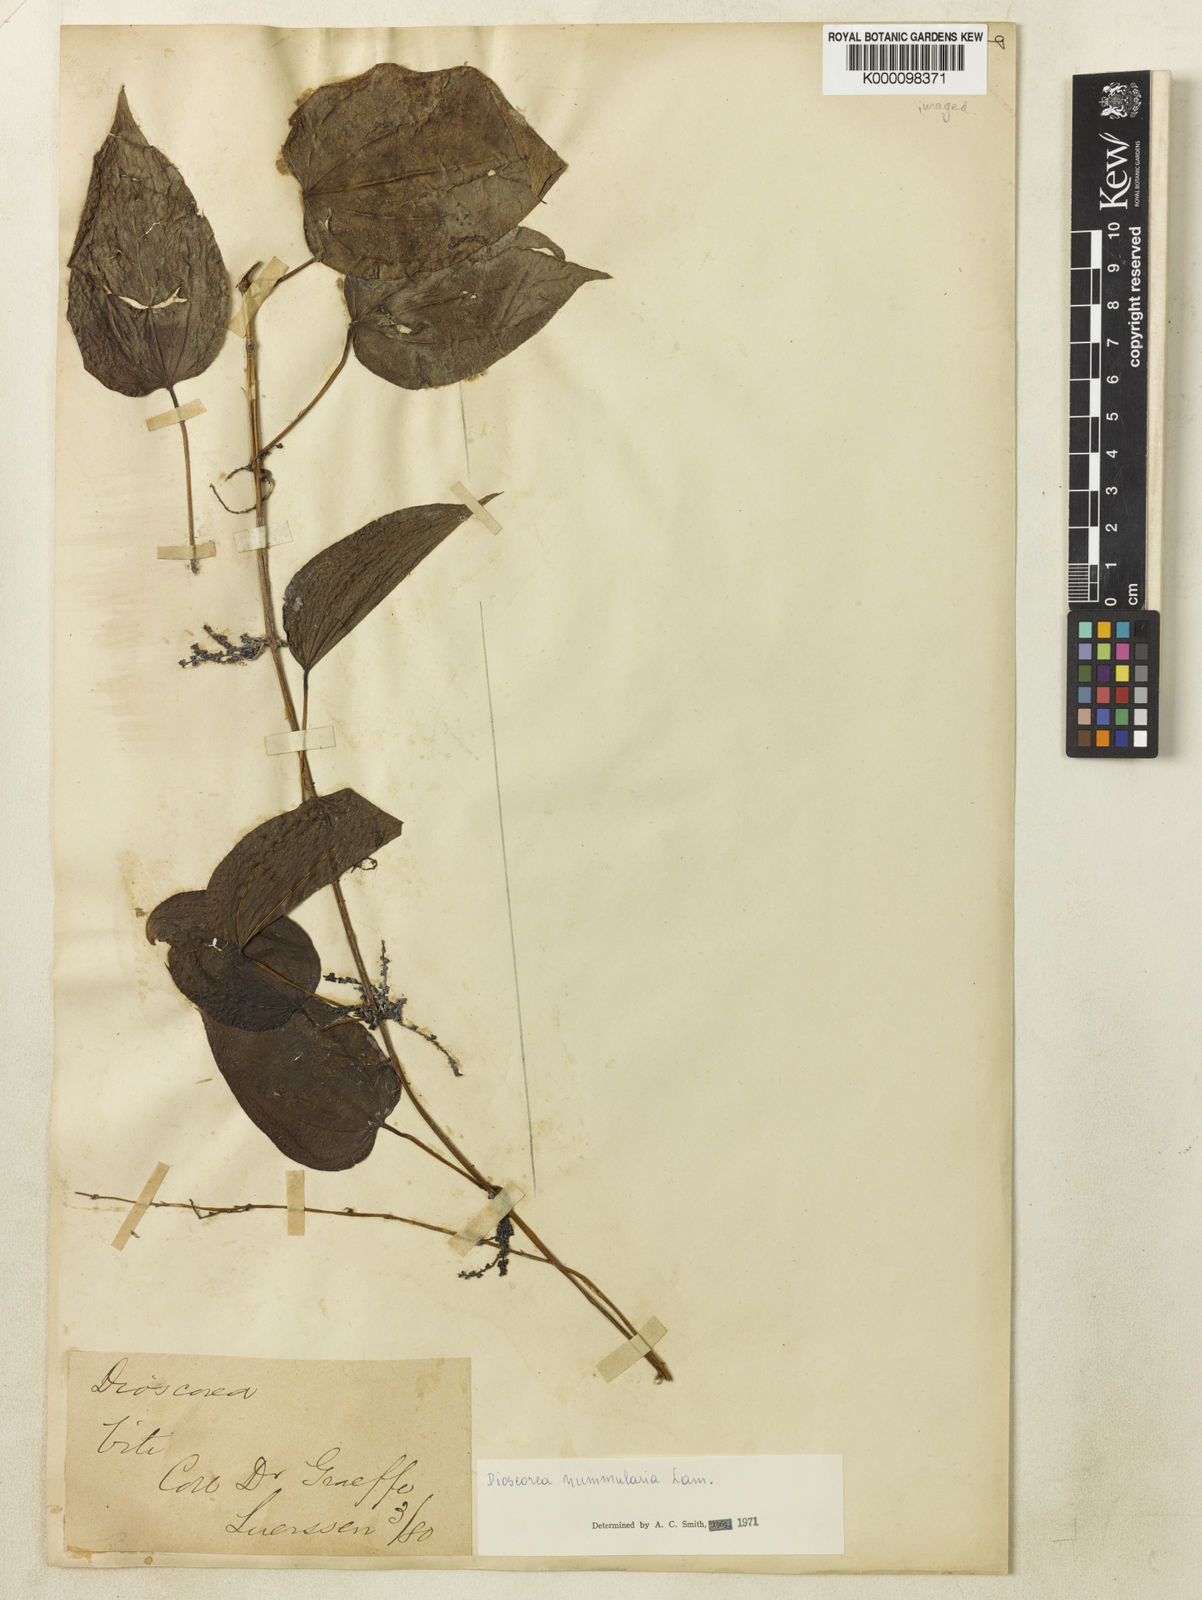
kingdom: Plantae
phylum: Tracheophyta
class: Liliopsida
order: Dioscoreales
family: Dioscoreaceae
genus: Dioscorea
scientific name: Dioscorea nummularia
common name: Pacific yam
